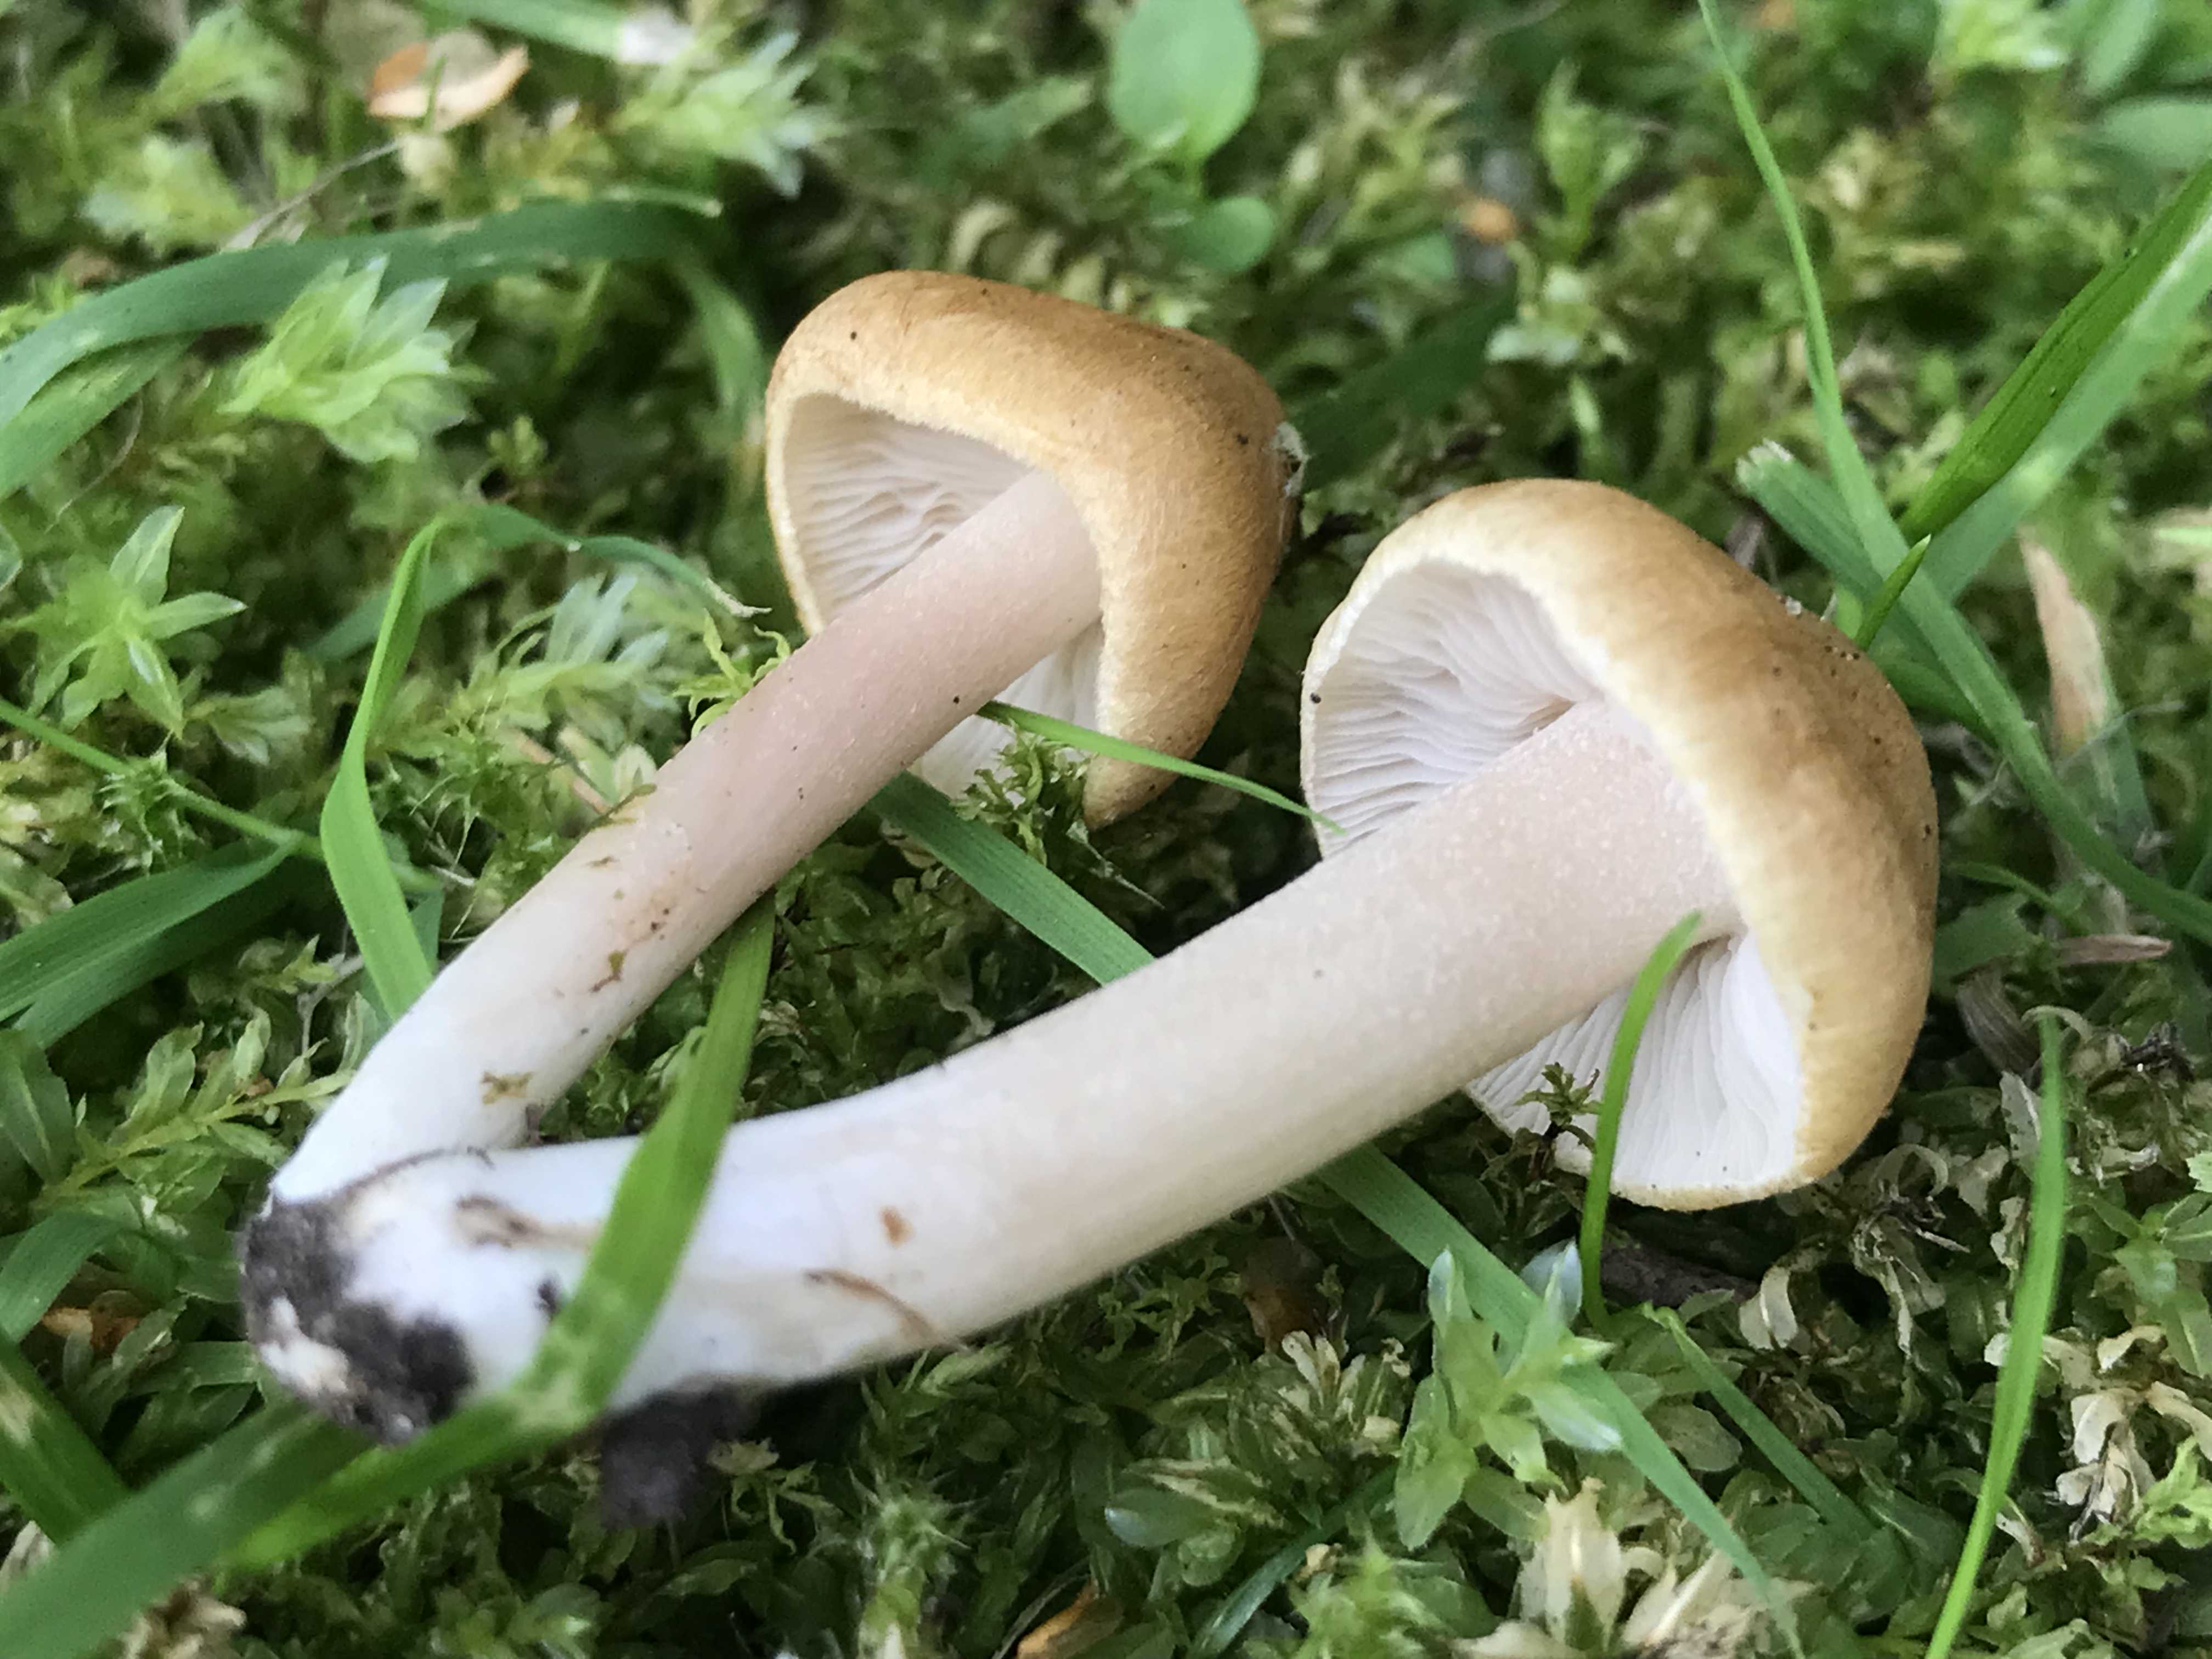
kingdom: Fungi
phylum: Basidiomycota
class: Agaricomycetes
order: Agaricales
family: Inocybaceae
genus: Pseudosperma
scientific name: Pseudosperma
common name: trævlhat
